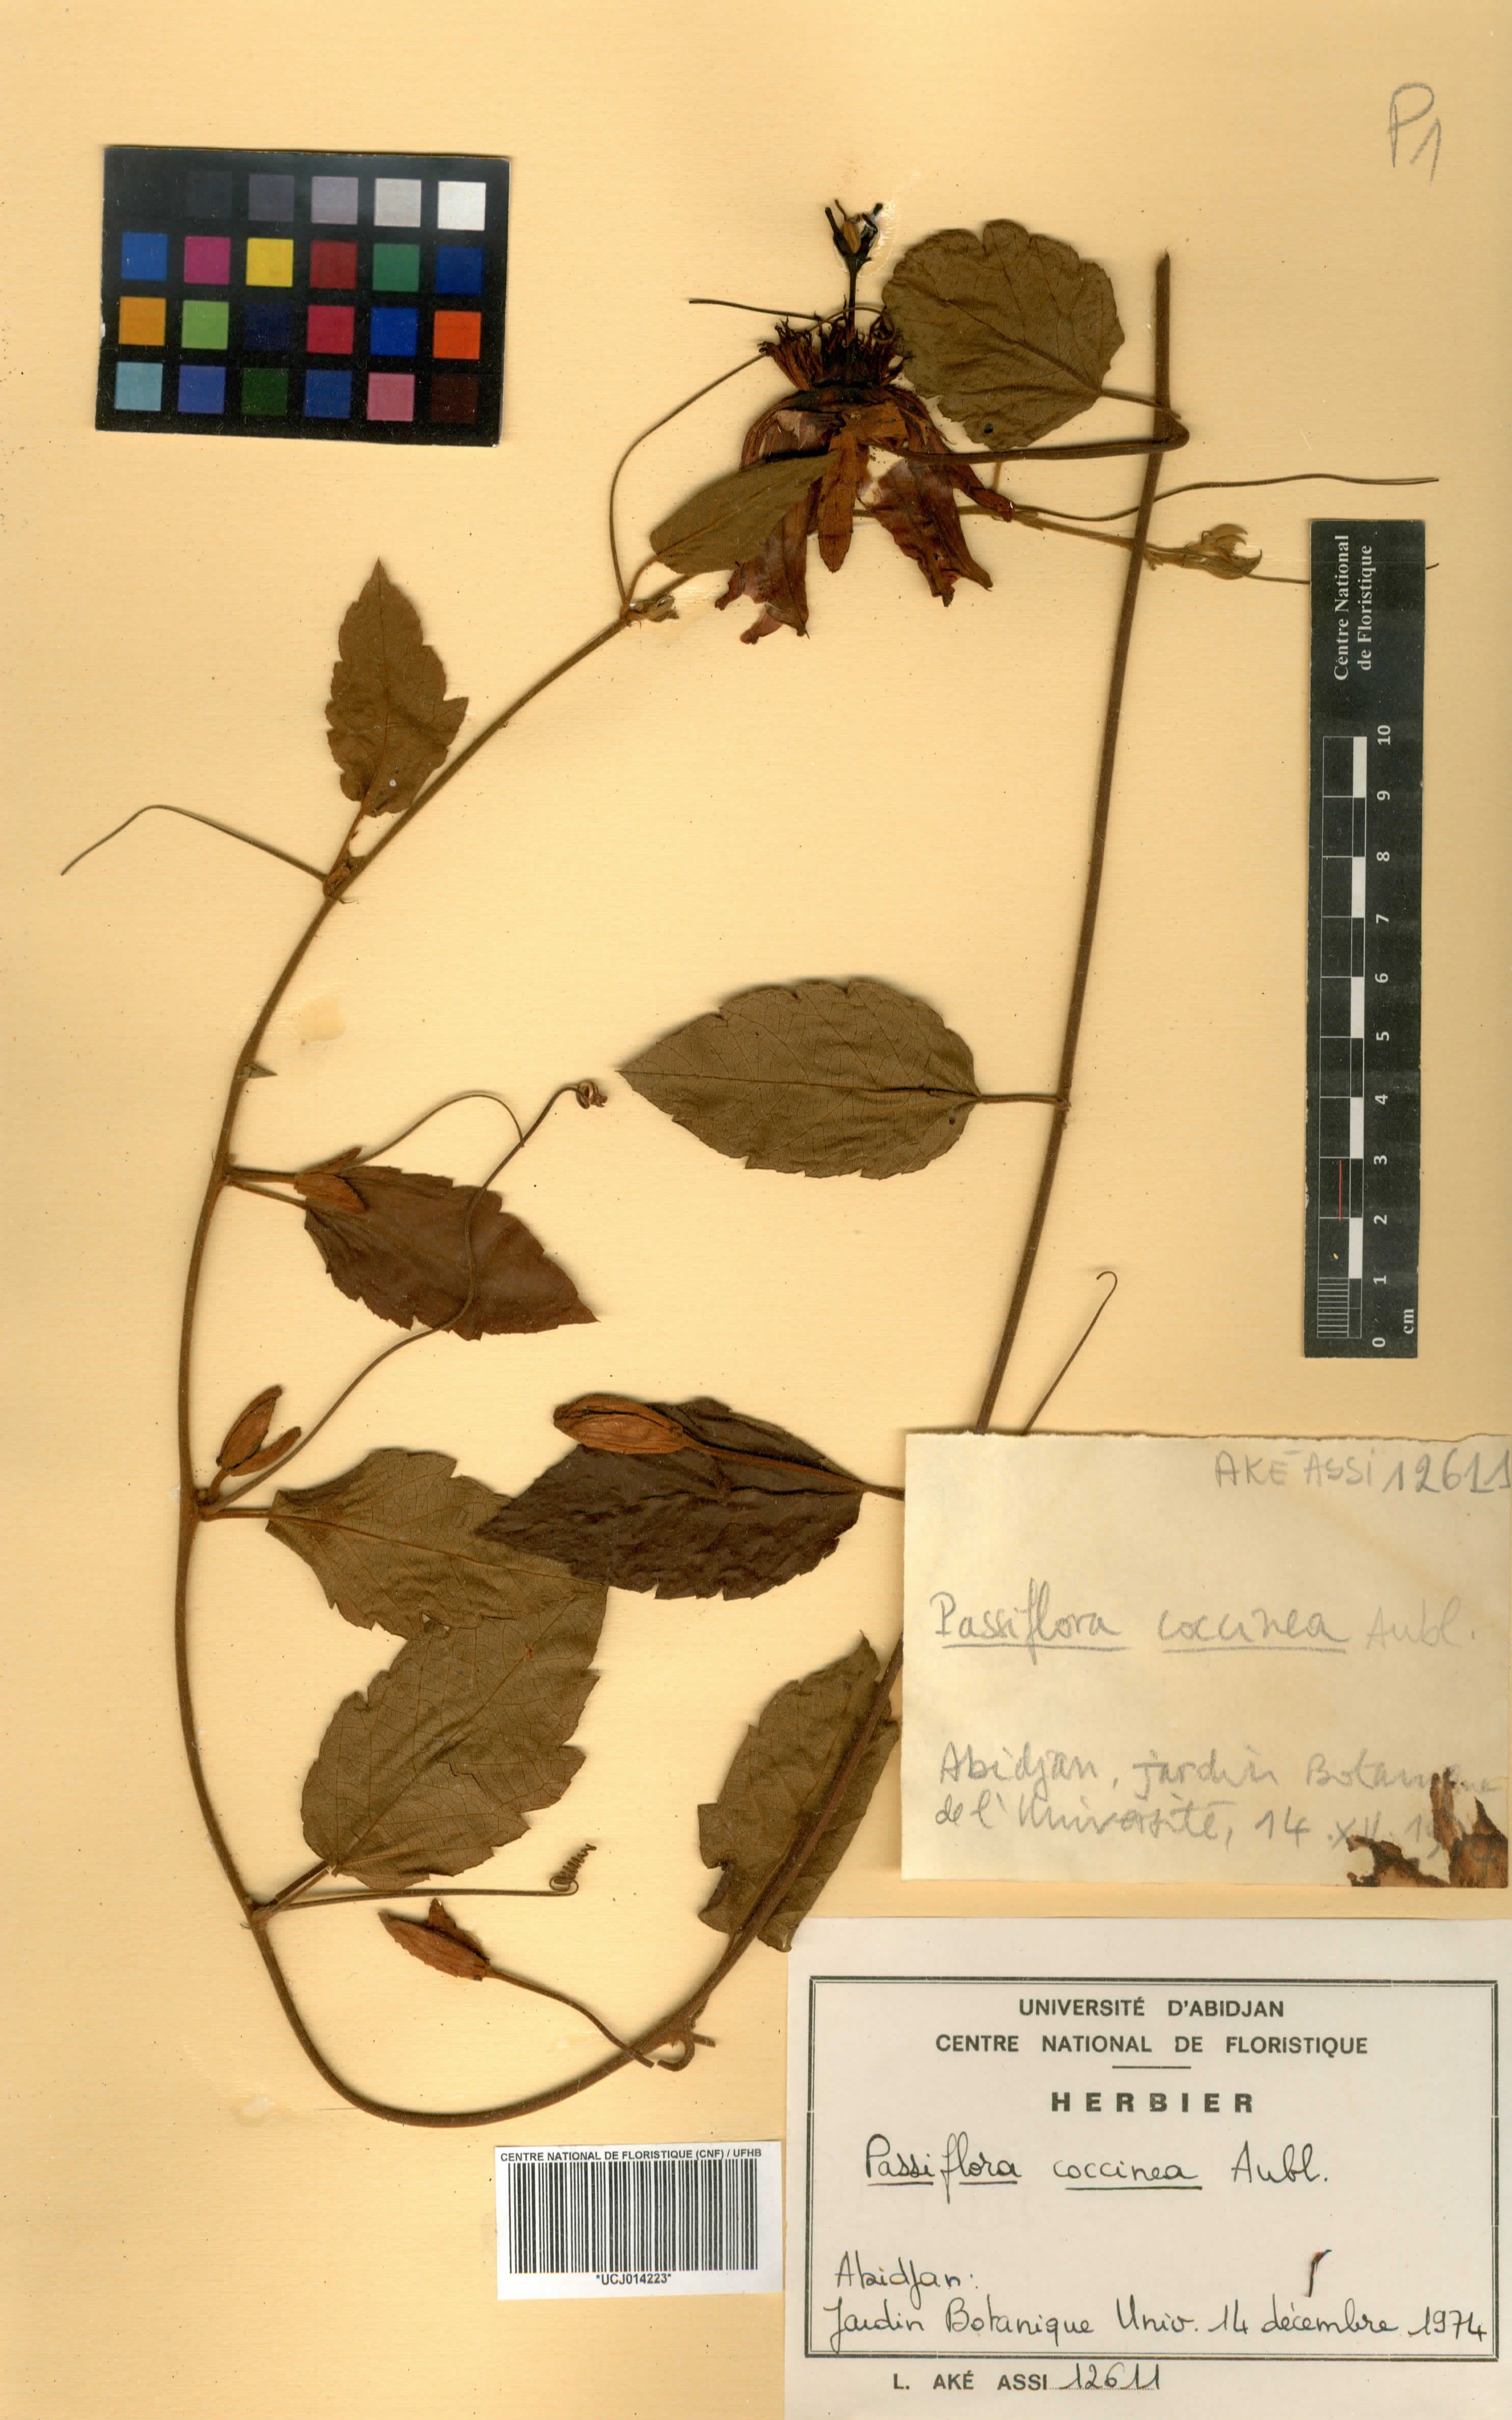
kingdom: Plantae
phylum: Tracheophyta
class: Magnoliopsida
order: Malpighiales
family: Passifloraceae
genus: Passiflora
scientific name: Passiflora coccinea
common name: Scarlet passionflower
